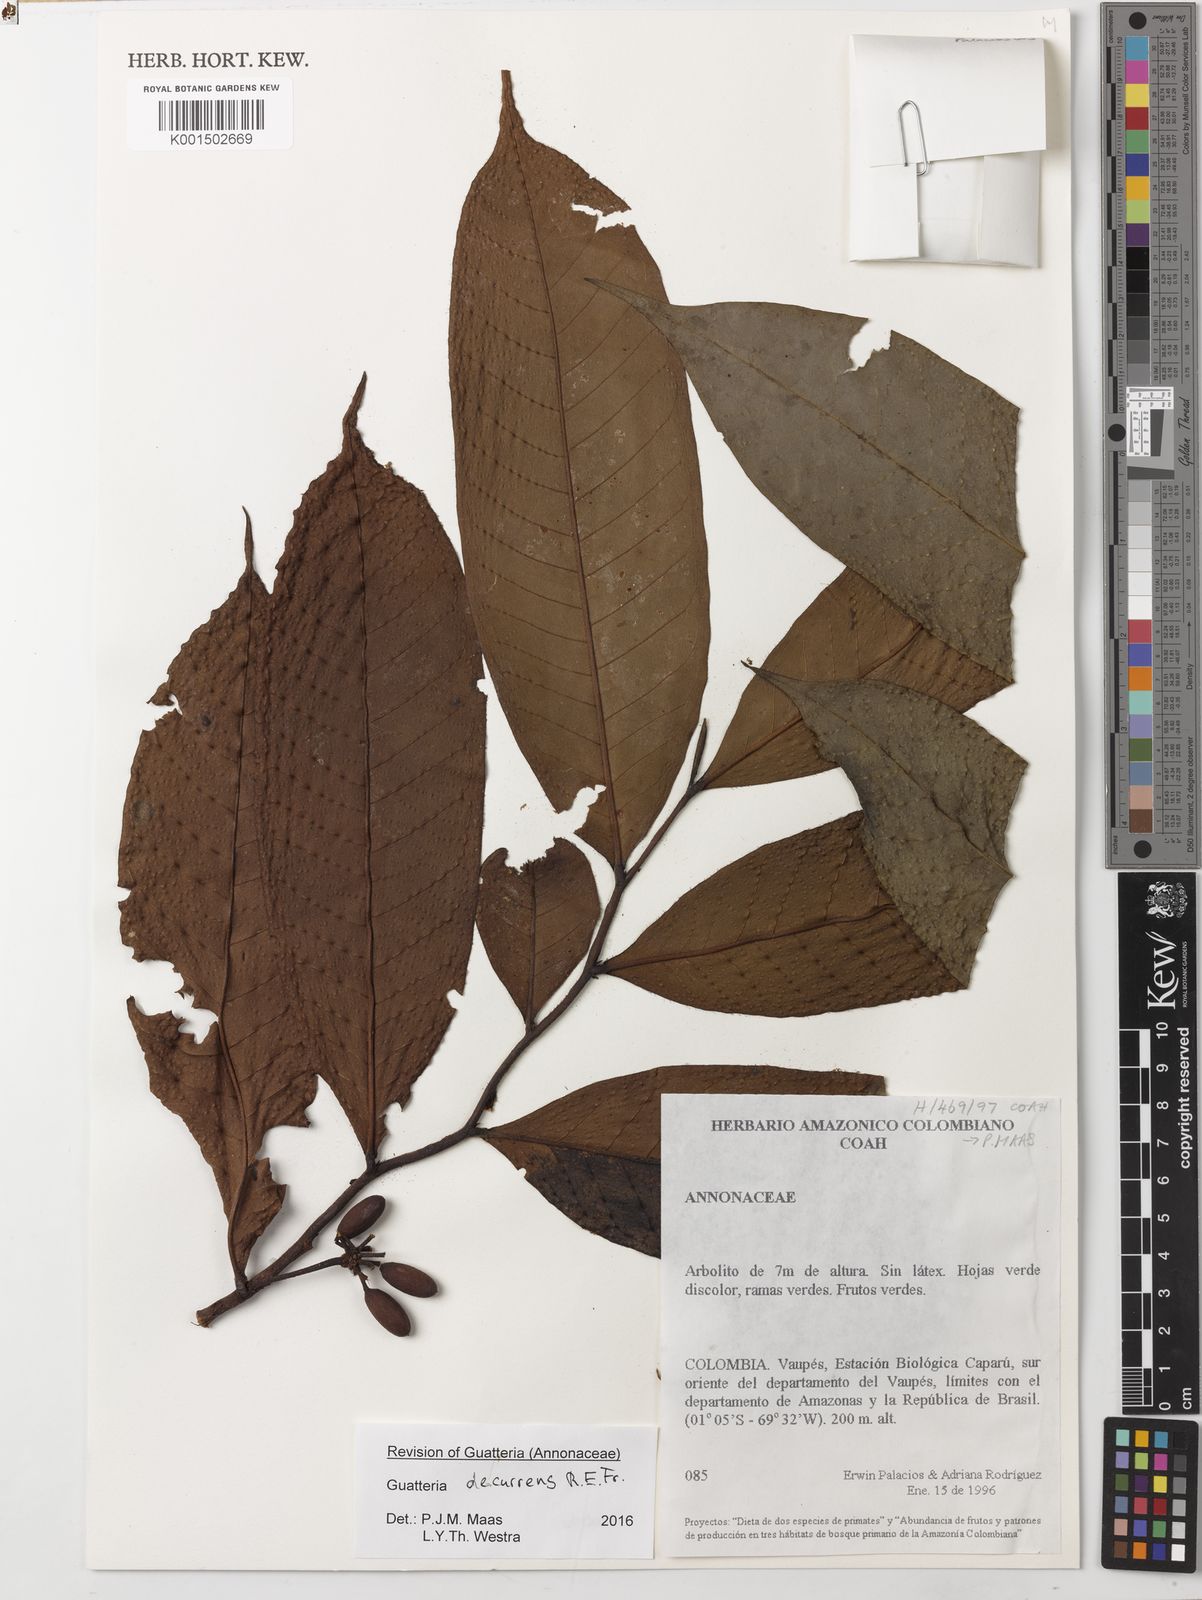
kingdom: Plantae
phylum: Tracheophyta
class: Magnoliopsida
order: Magnoliales
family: Annonaceae
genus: Guatteria
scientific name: Guatteria decurrens
